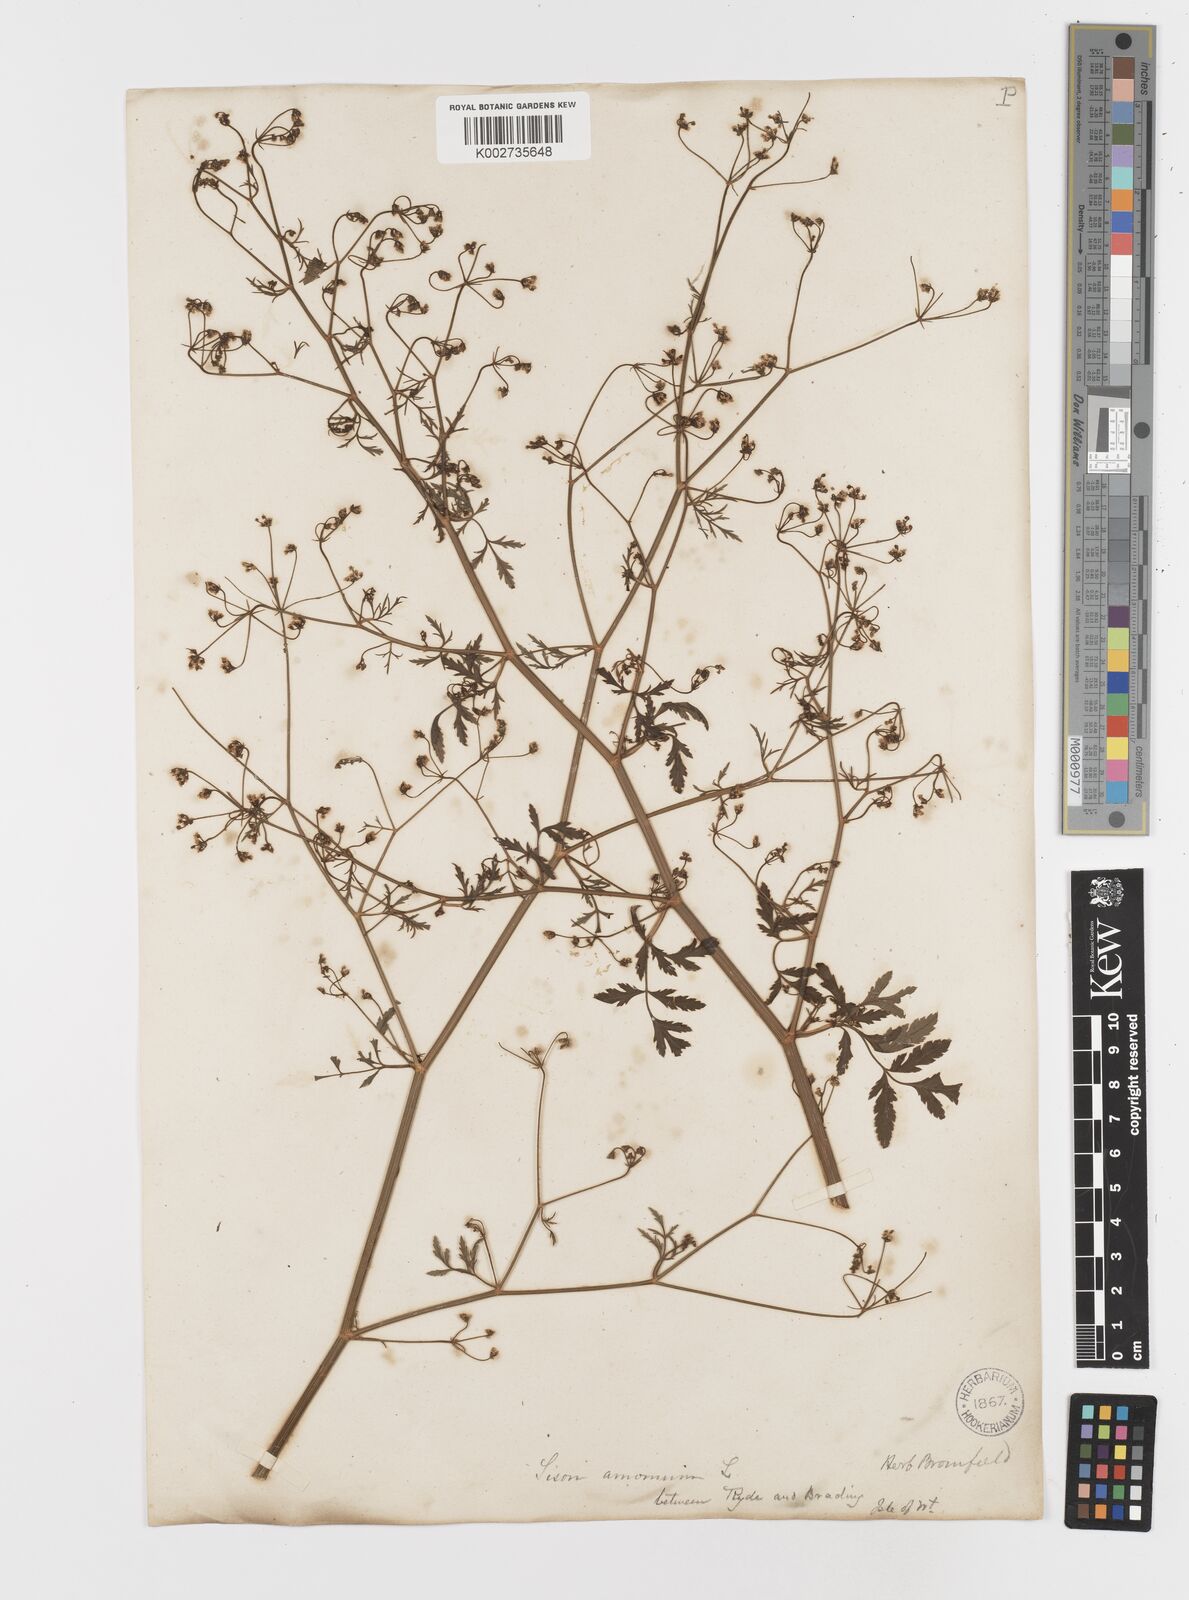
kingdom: Plantae
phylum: Tracheophyta
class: Magnoliopsida
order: Apiales
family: Apiaceae
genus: Sison
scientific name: Sison amomum
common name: Stone-parsley
